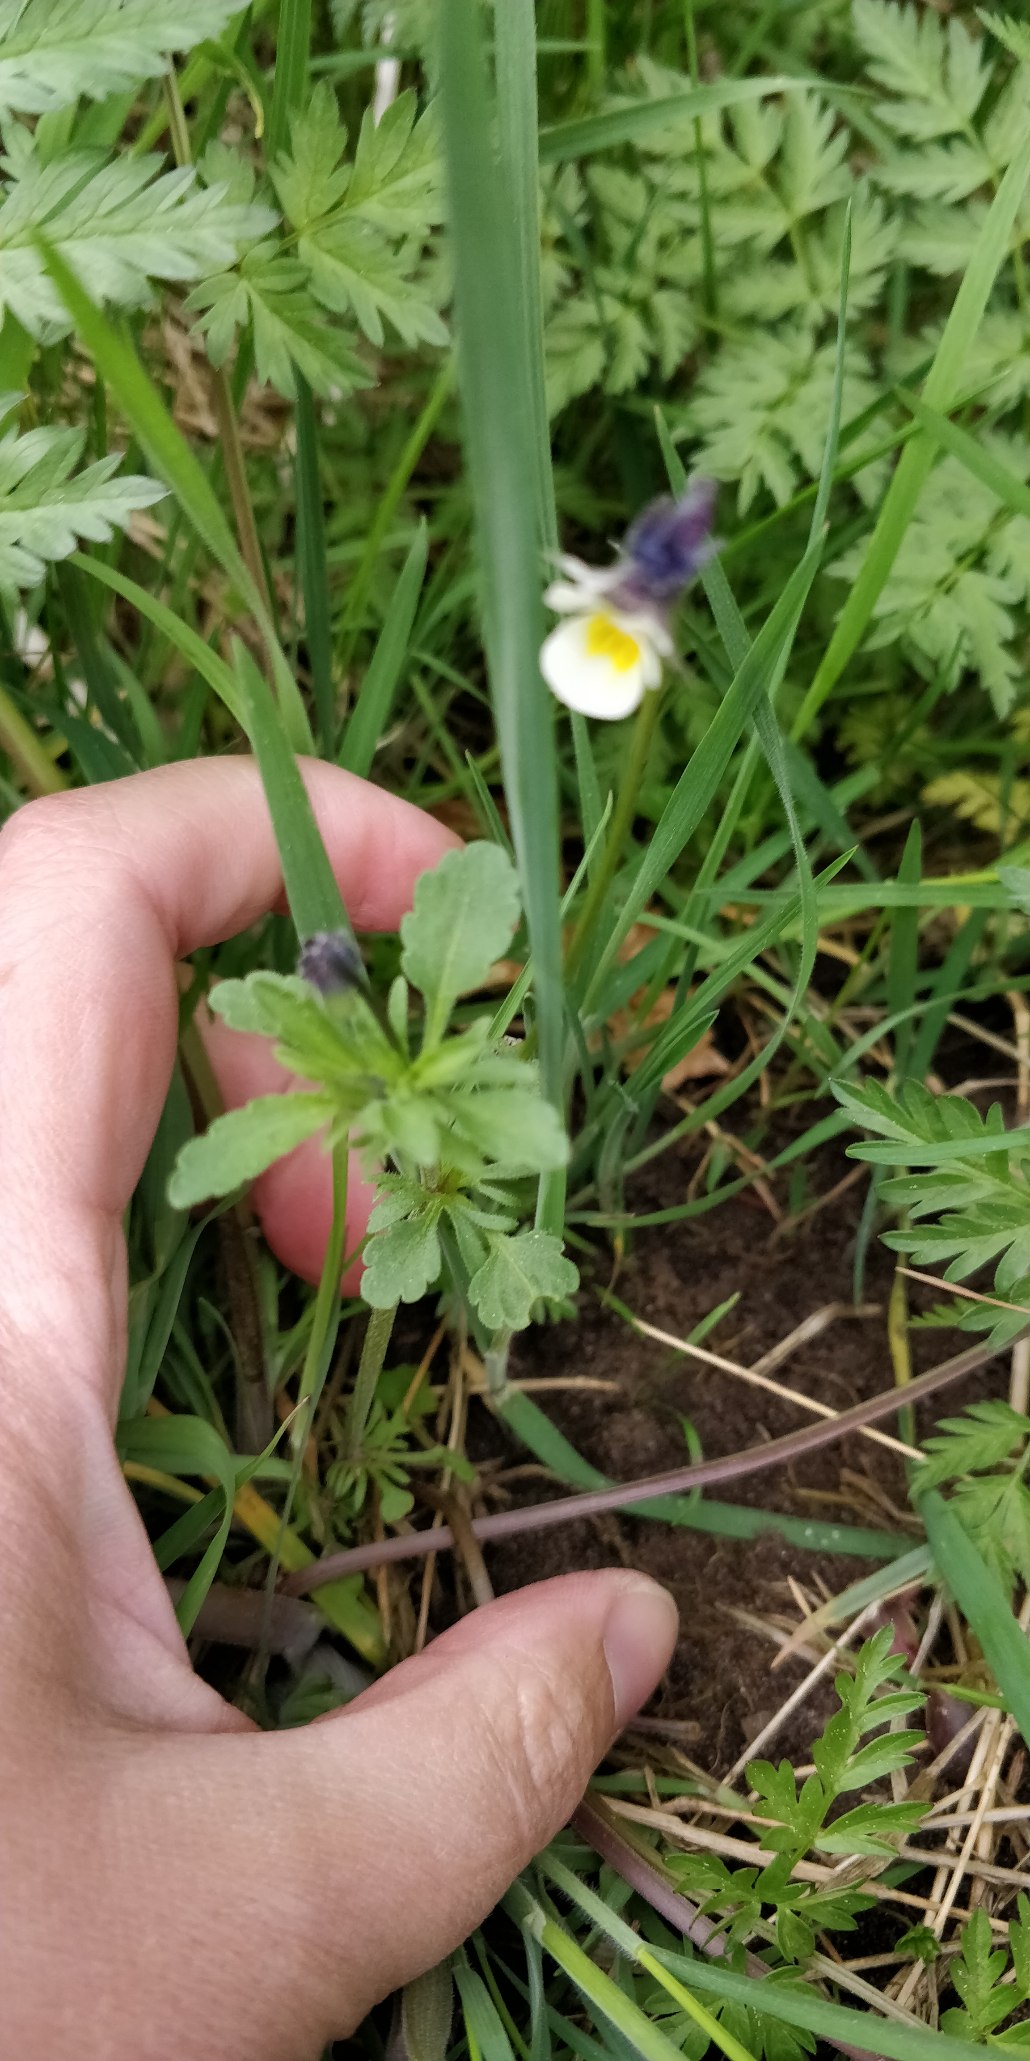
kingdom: Plantae
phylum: Tracheophyta
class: Magnoliopsida
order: Malpighiales
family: Violaceae
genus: Viola
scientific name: Viola arvensis
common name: Ager-stedmoderblomst
